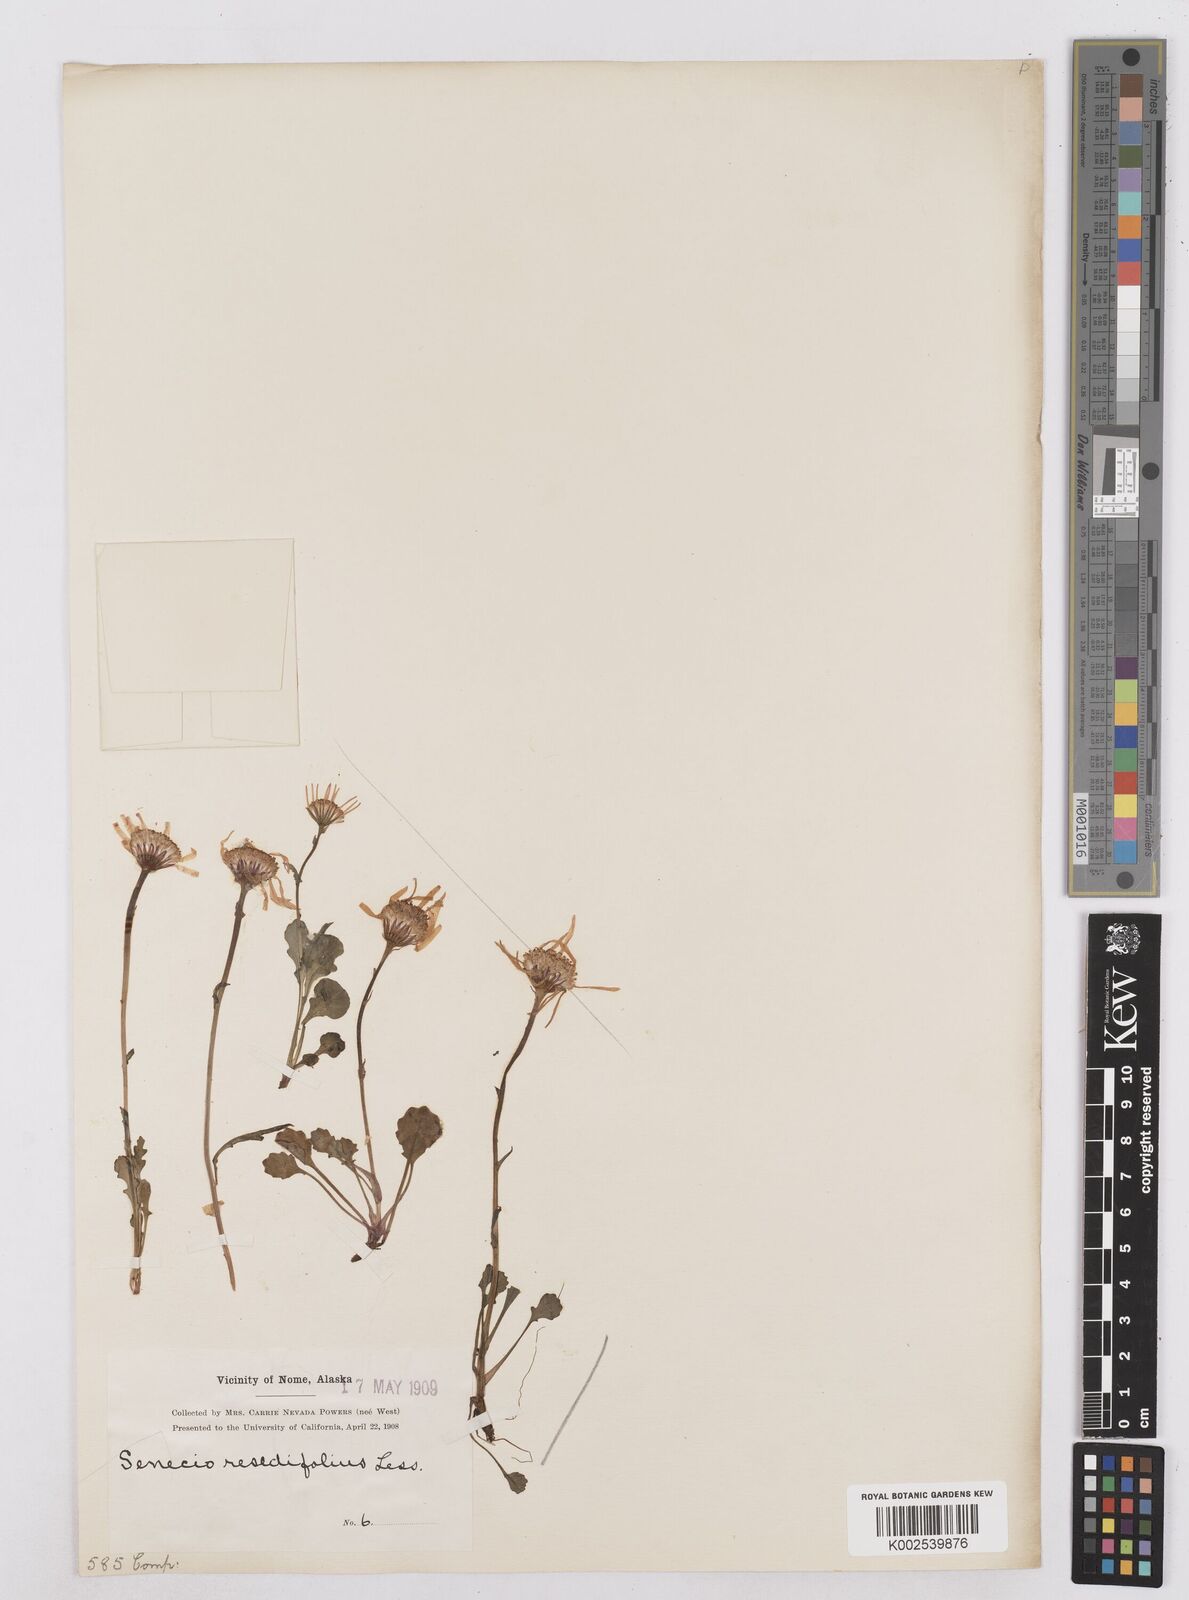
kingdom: Plantae
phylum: Tracheophyta
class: Magnoliopsida
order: Asterales
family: Asteraceae
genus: Packera
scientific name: Packera cymbalaria
